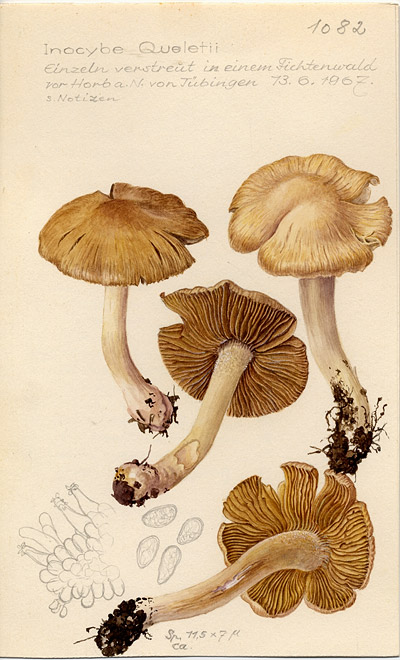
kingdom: Fungi
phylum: Basidiomycota
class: Agaricomycetes
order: Agaricales
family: Inocybaceae
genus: Inocybe
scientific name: Inocybe queletii
